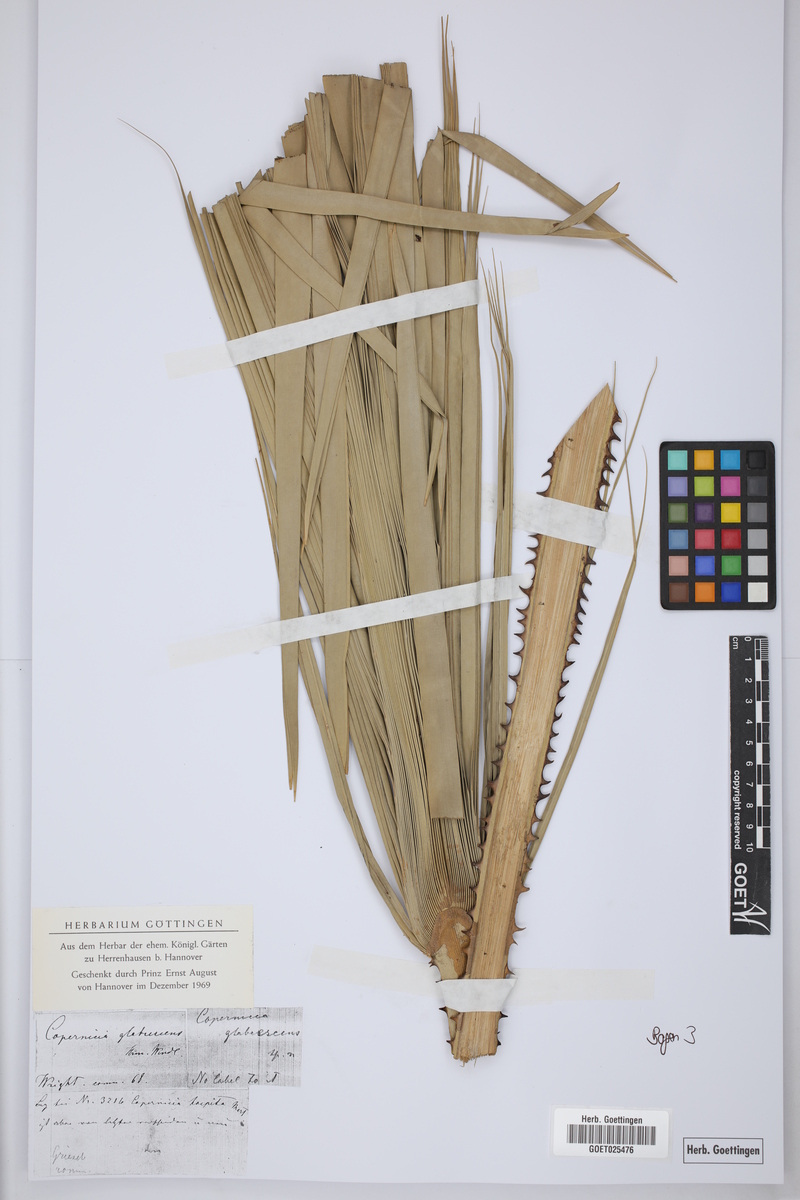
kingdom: Plantae
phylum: Tracheophyta
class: Liliopsida
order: Arecales
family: Arecaceae
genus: Copernicia
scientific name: Copernicia glabrescens
